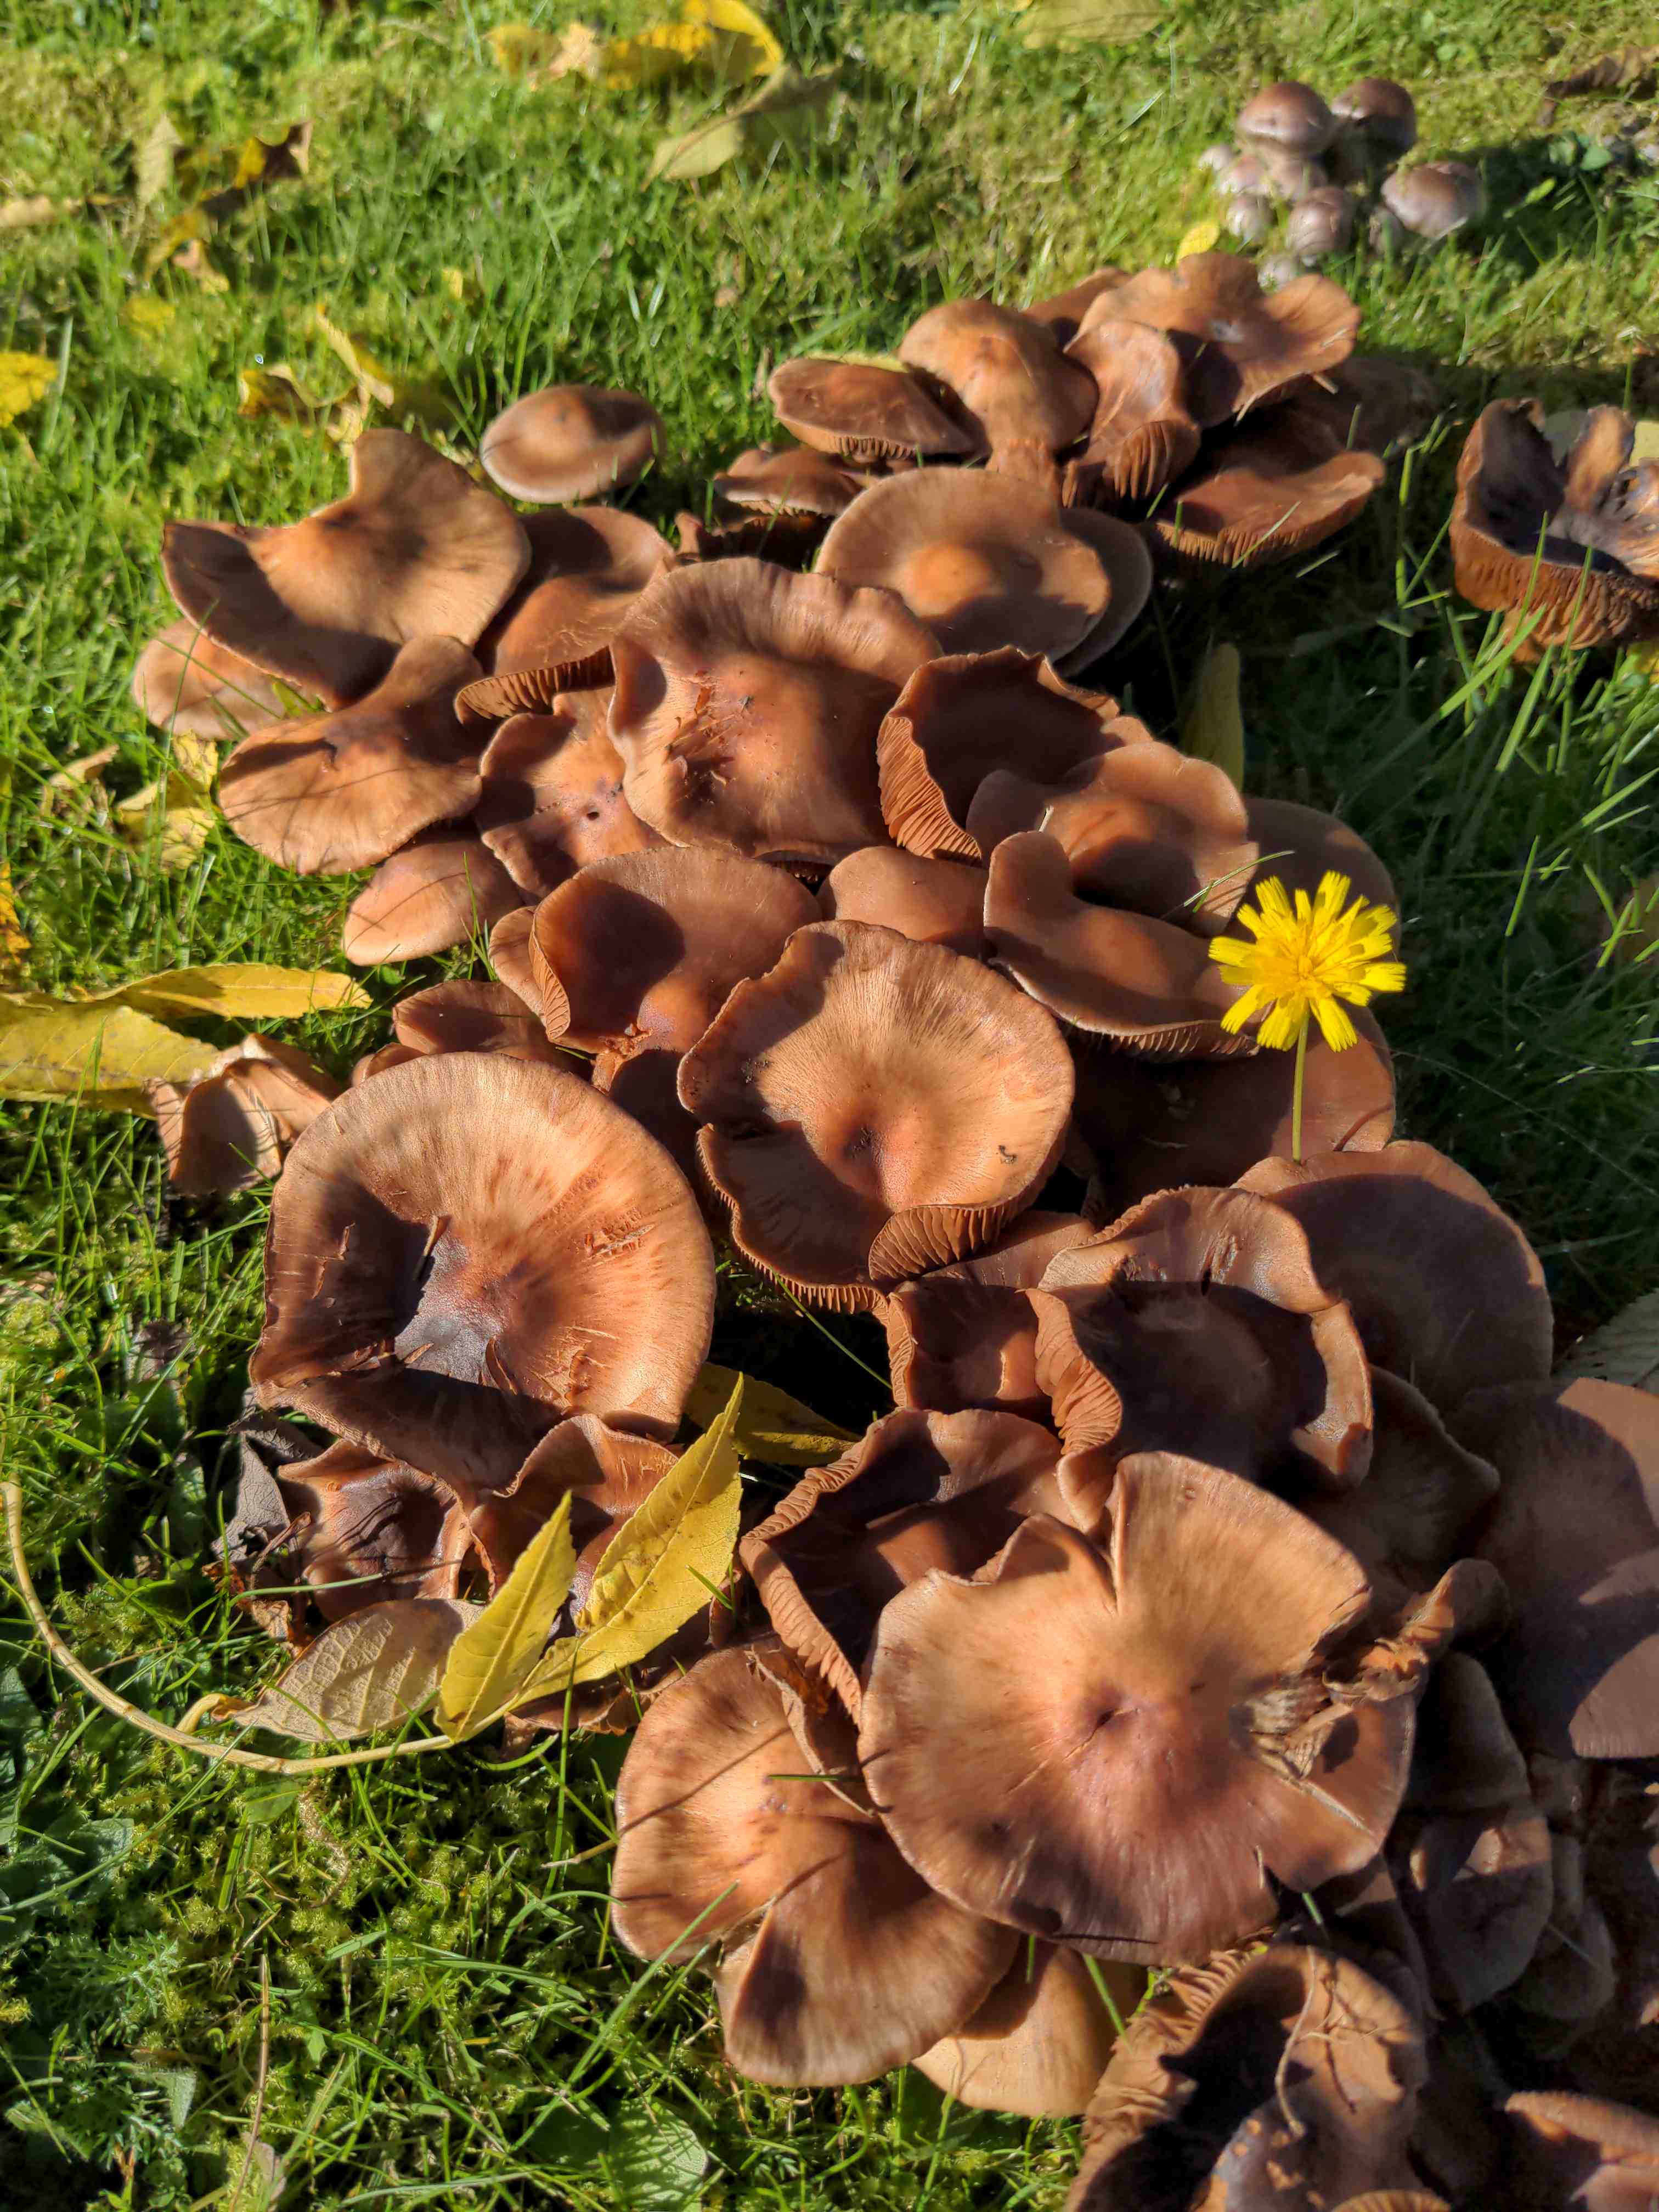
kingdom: Fungi
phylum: Basidiomycota
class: Agaricomycetes
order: Agaricales
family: Cortinariaceae
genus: Cortinarius
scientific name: Cortinarius
